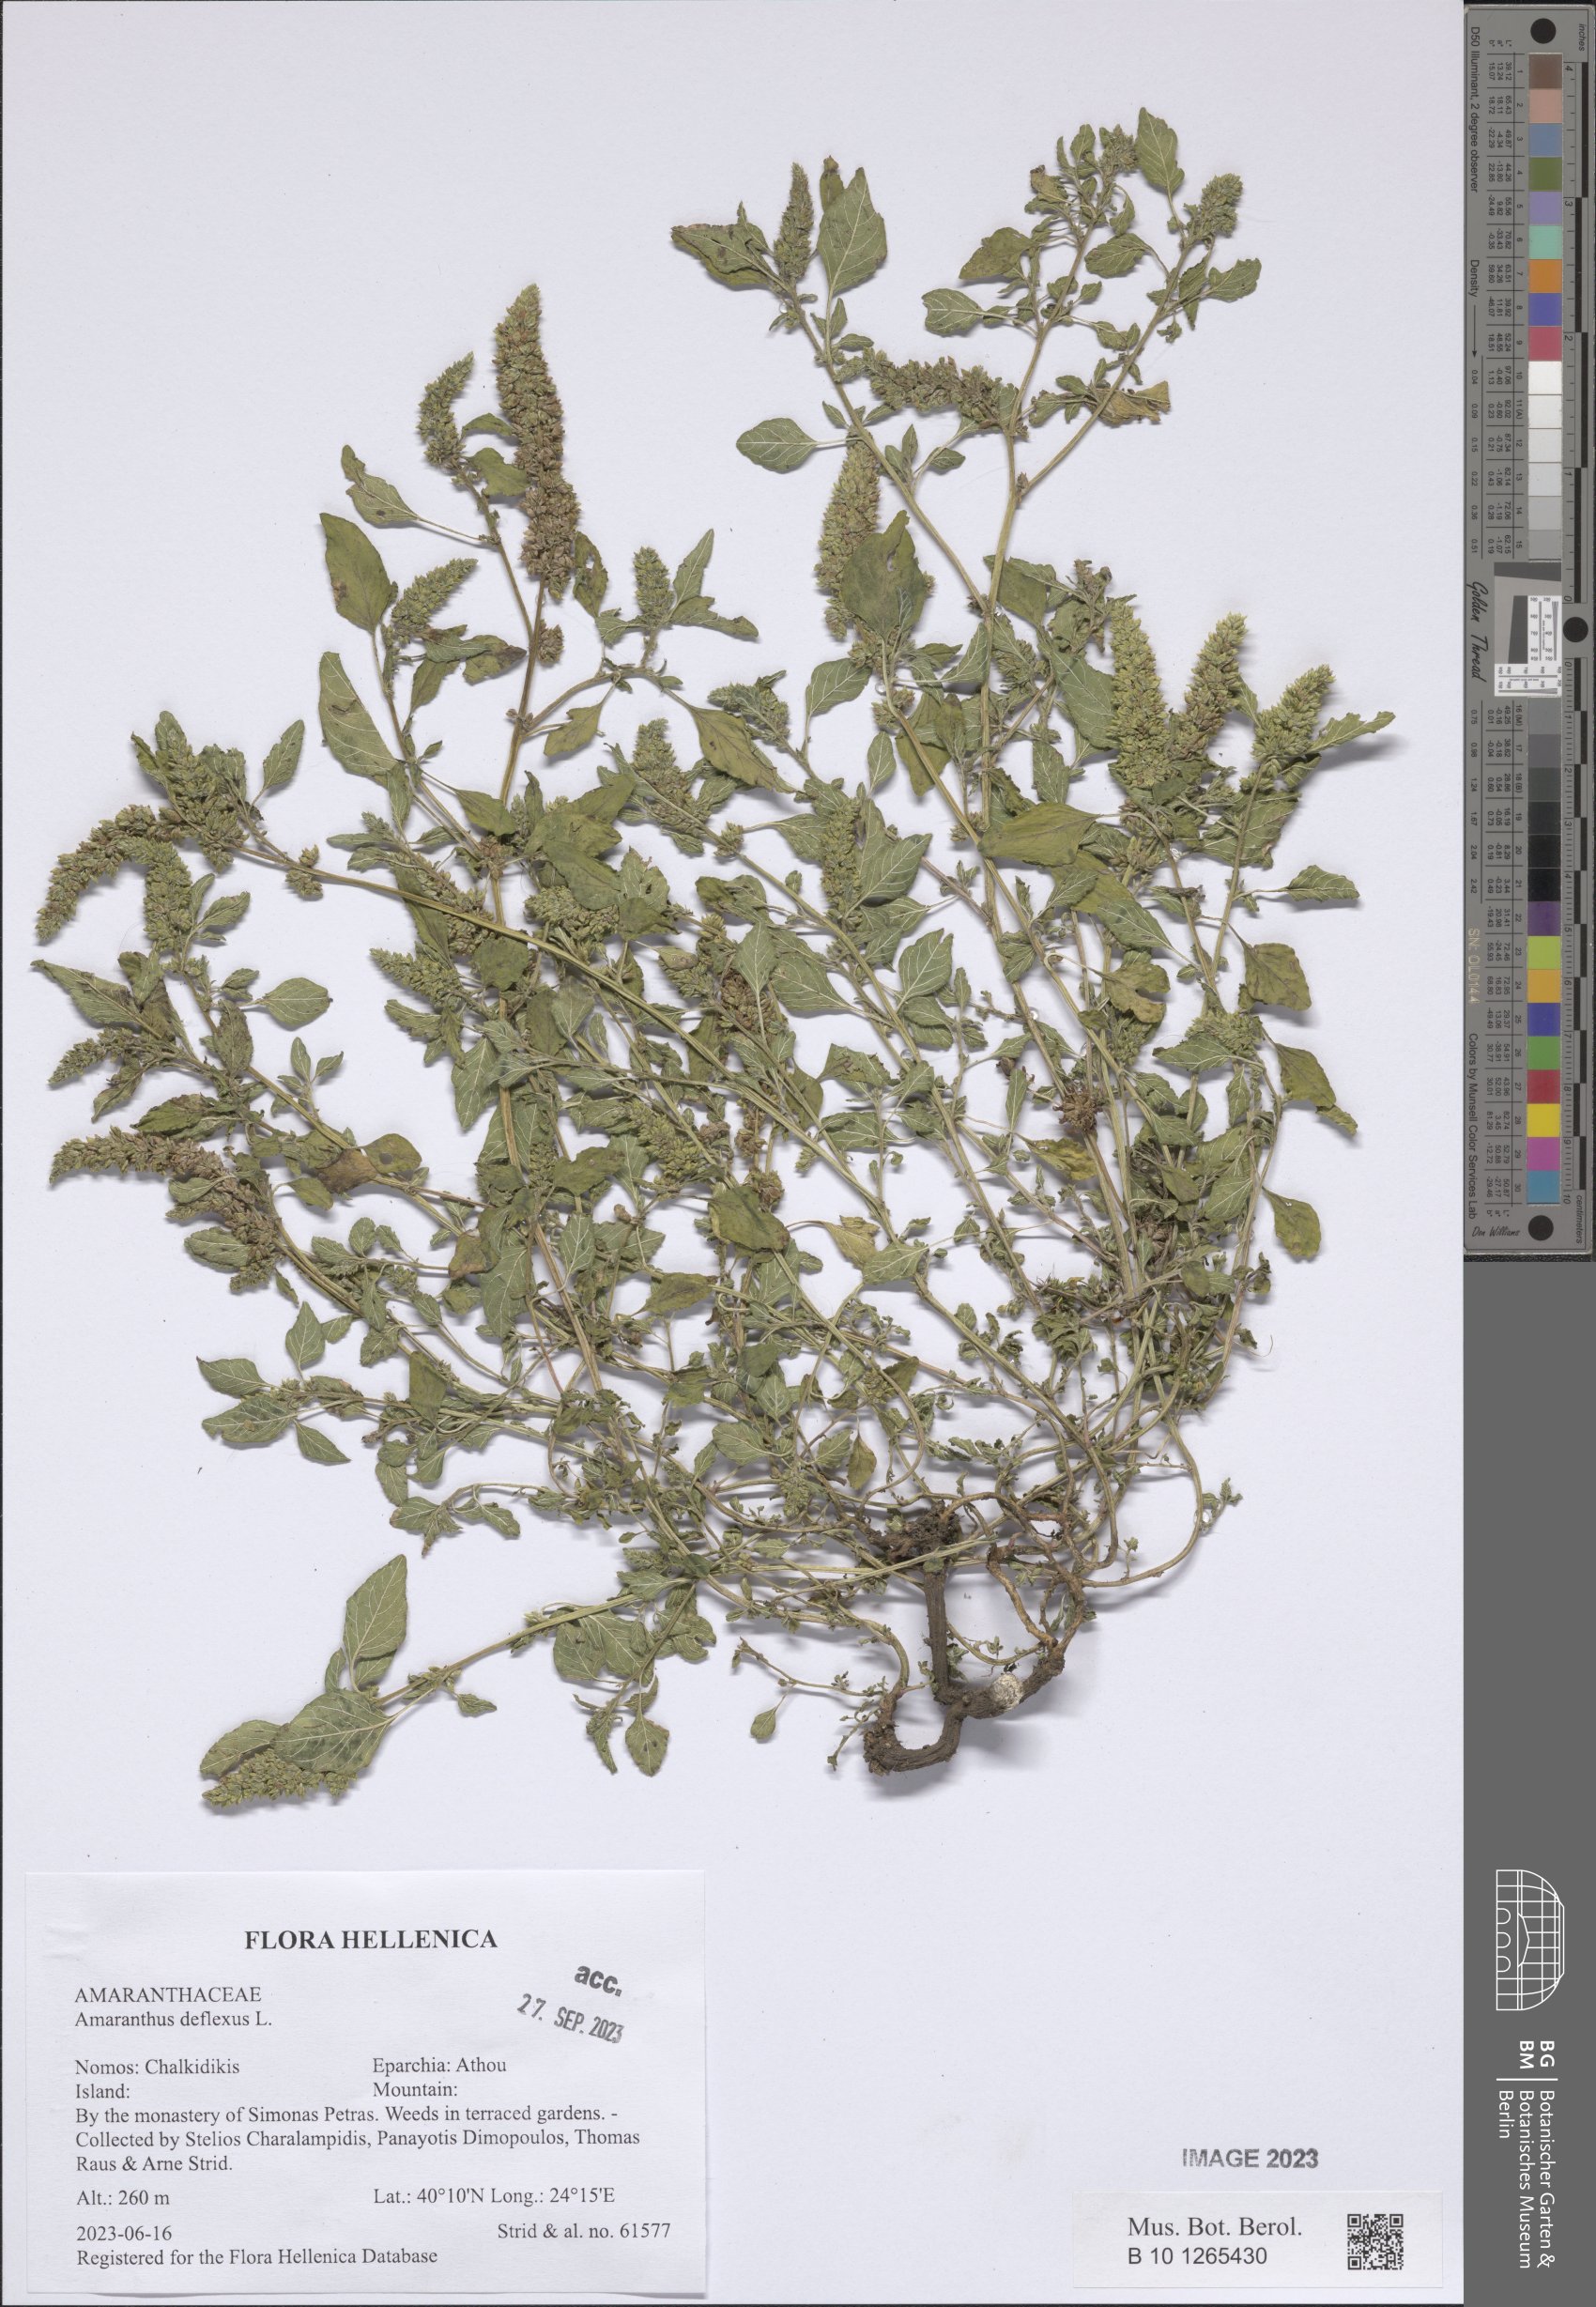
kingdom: Plantae
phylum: Tracheophyta
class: Magnoliopsida
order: Caryophyllales
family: Amaranthaceae
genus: Amaranthus
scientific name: Amaranthus deflexus
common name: Perennial pigweed
